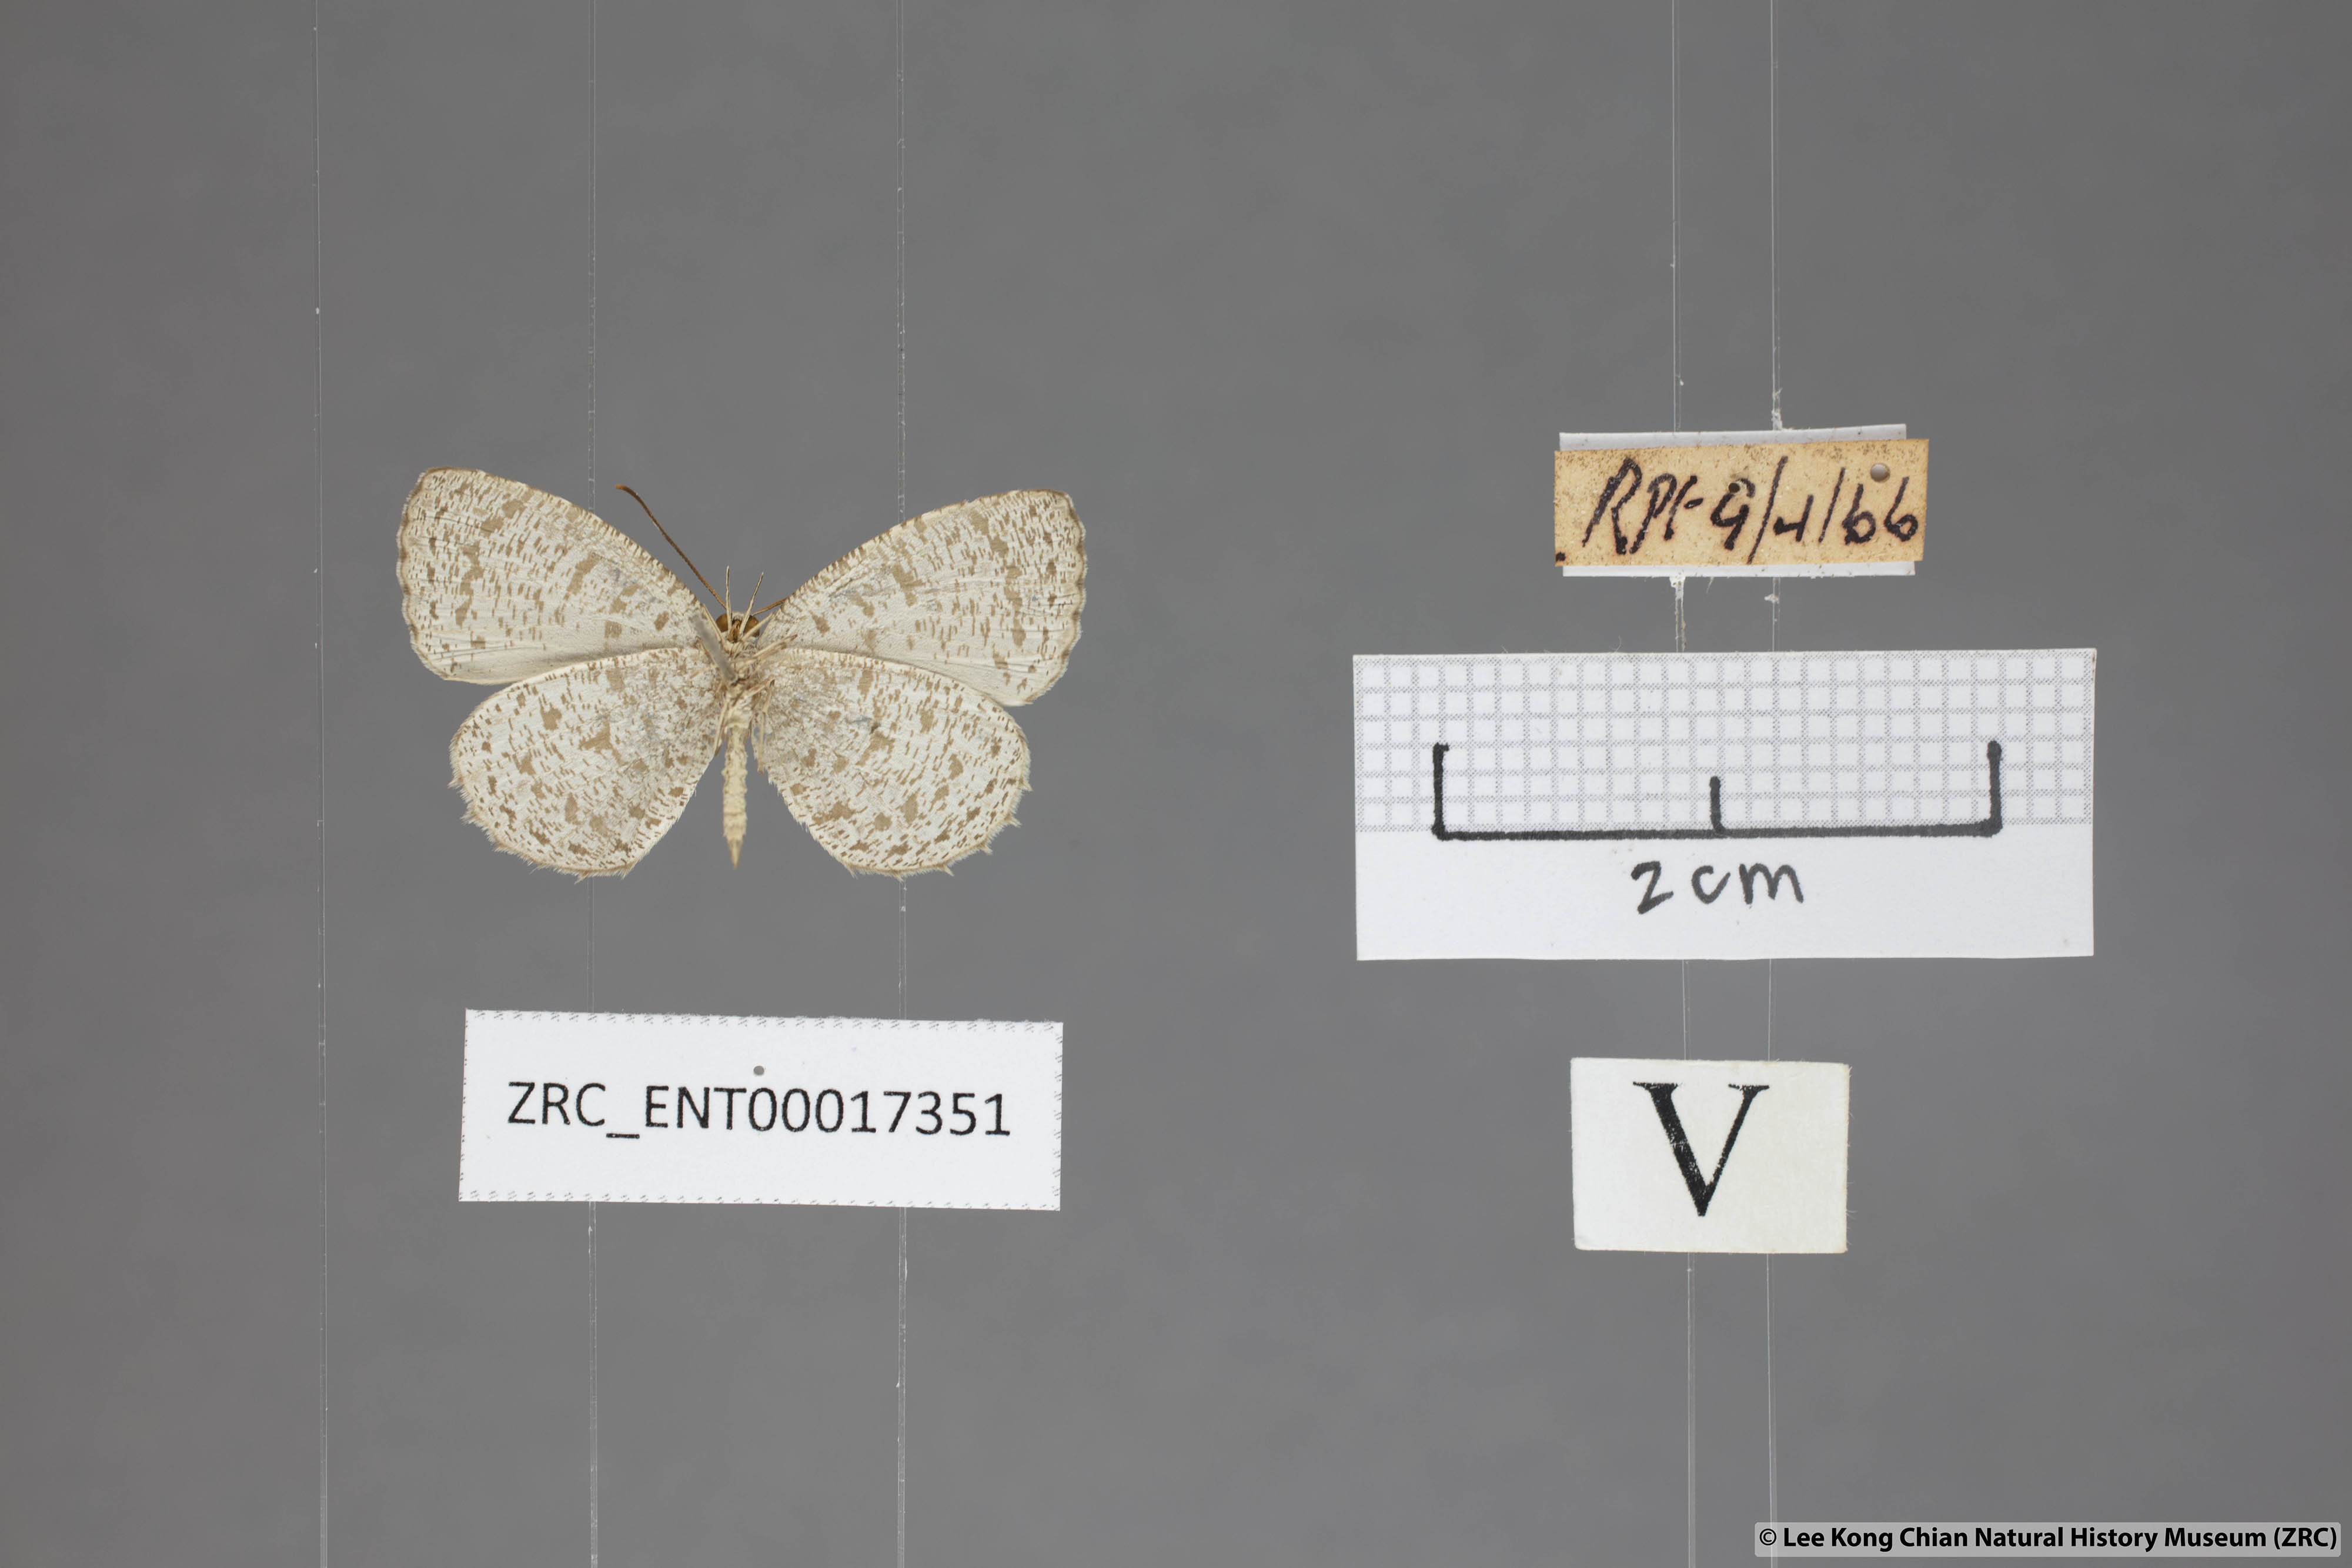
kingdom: Animalia
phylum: Arthropoda
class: Insecta
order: Lepidoptera
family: Lycaenidae
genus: Allotinus
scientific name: Allotinus unicolor
